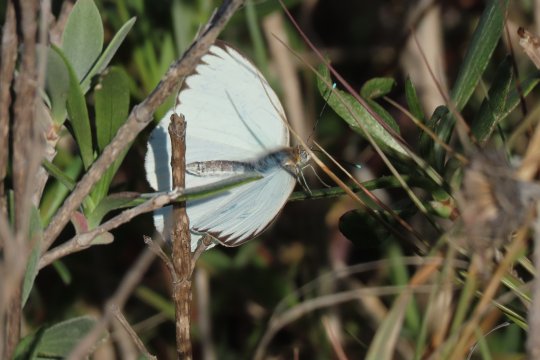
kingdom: Animalia
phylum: Arthropoda
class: Insecta
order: Lepidoptera
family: Pieridae
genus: Ascia
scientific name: Ascia monuste
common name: Great Southern White
